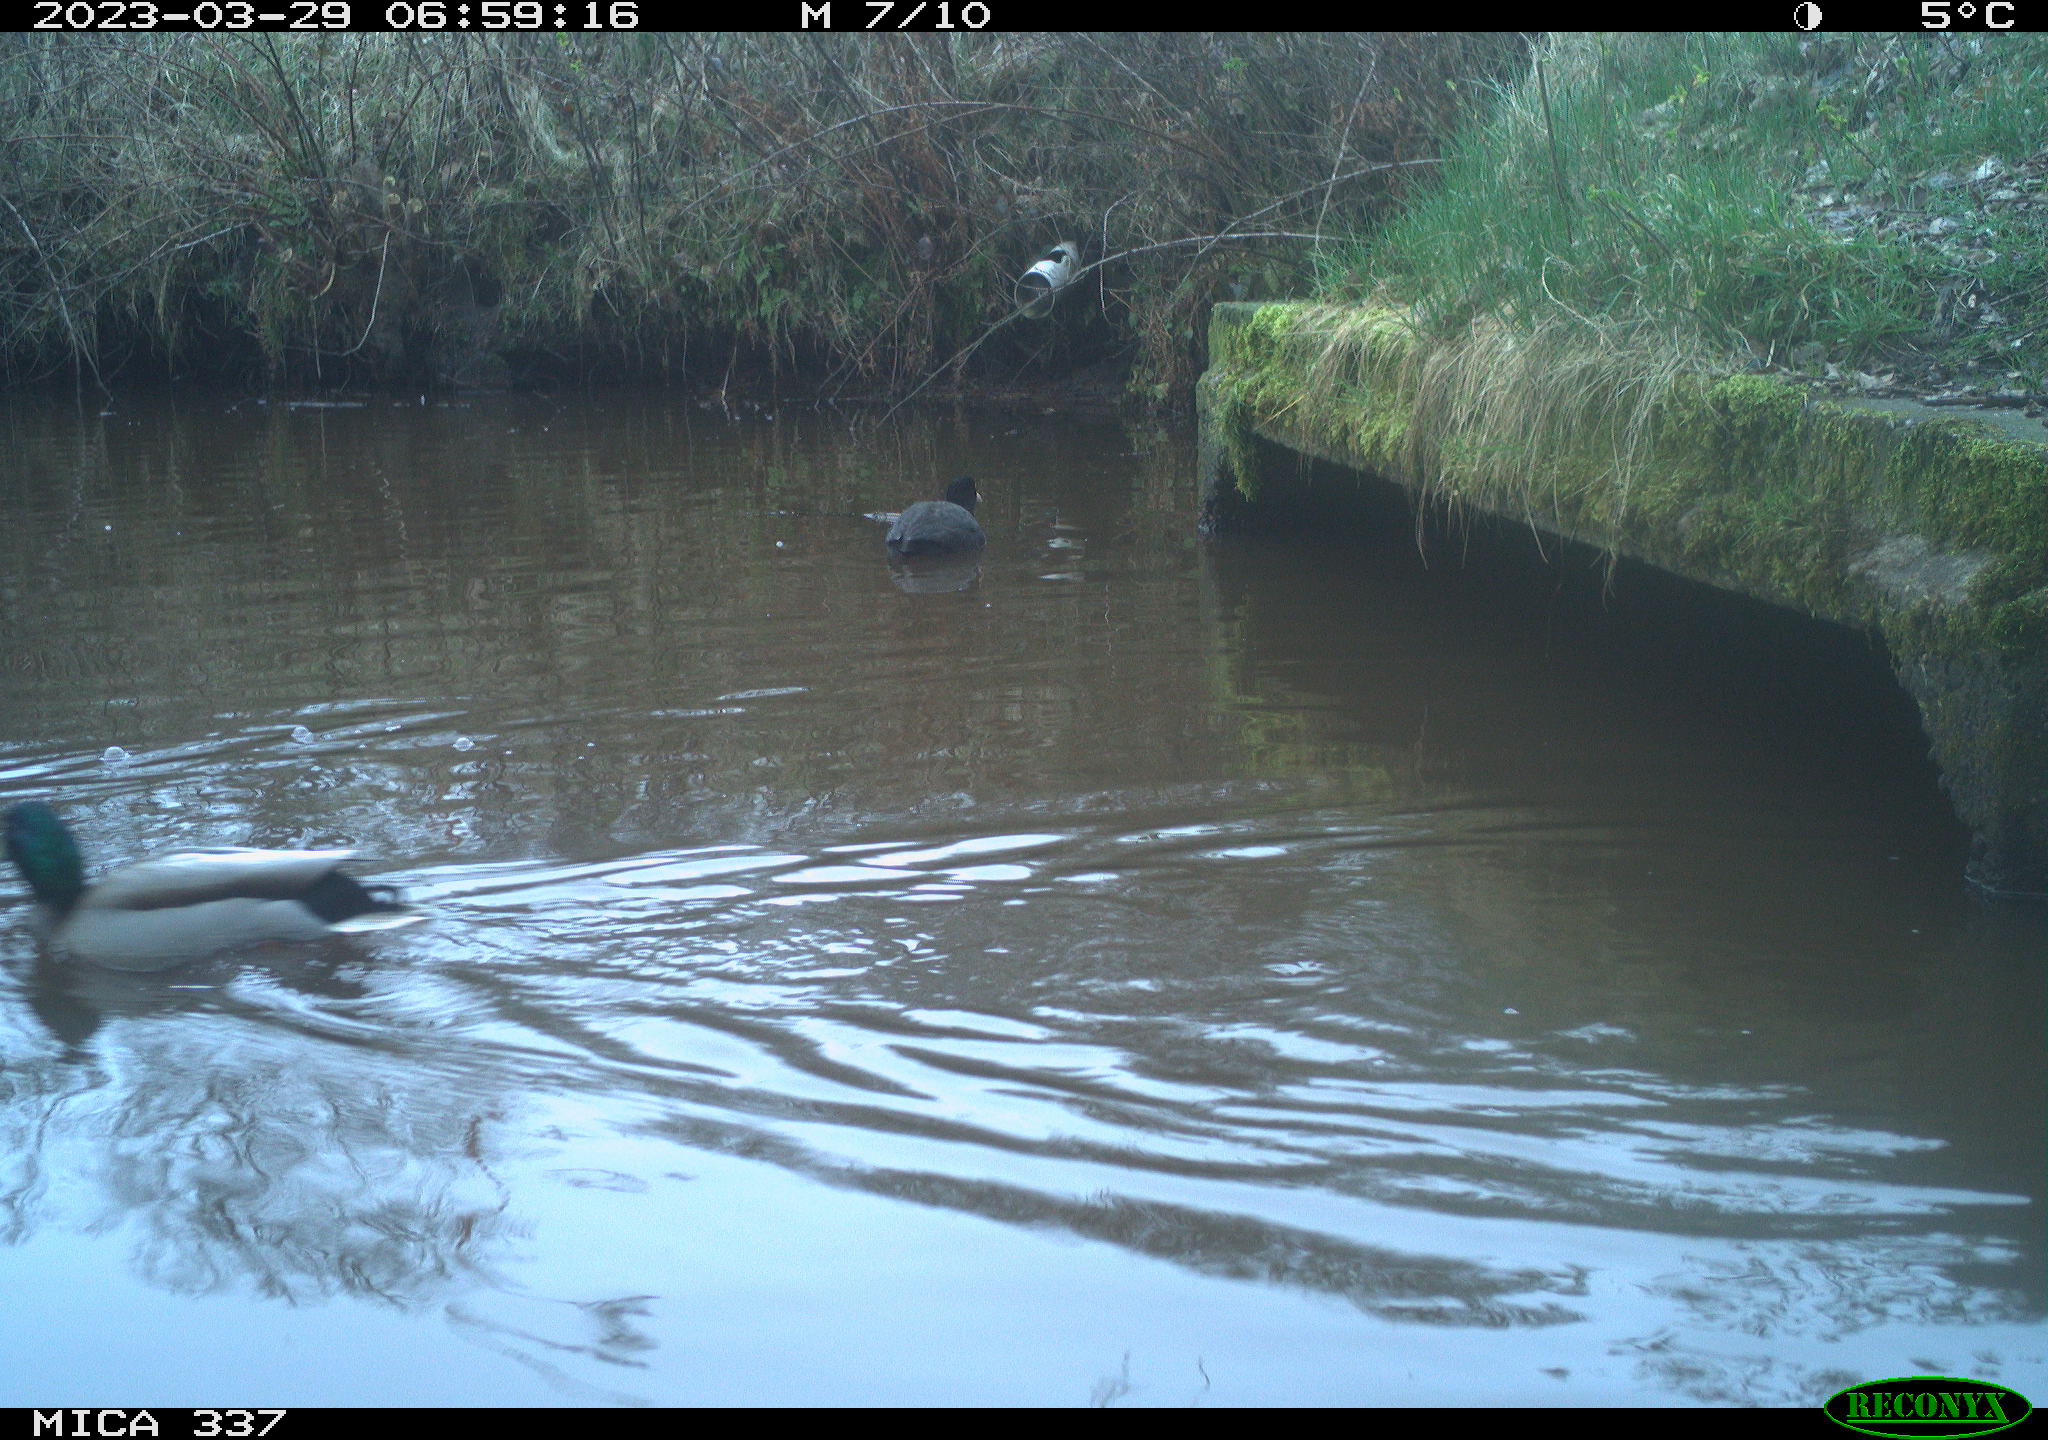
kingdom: Animalia
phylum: Chordata
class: Aves
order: Anseriformes
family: Anatidae
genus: Anas
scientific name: Anas
